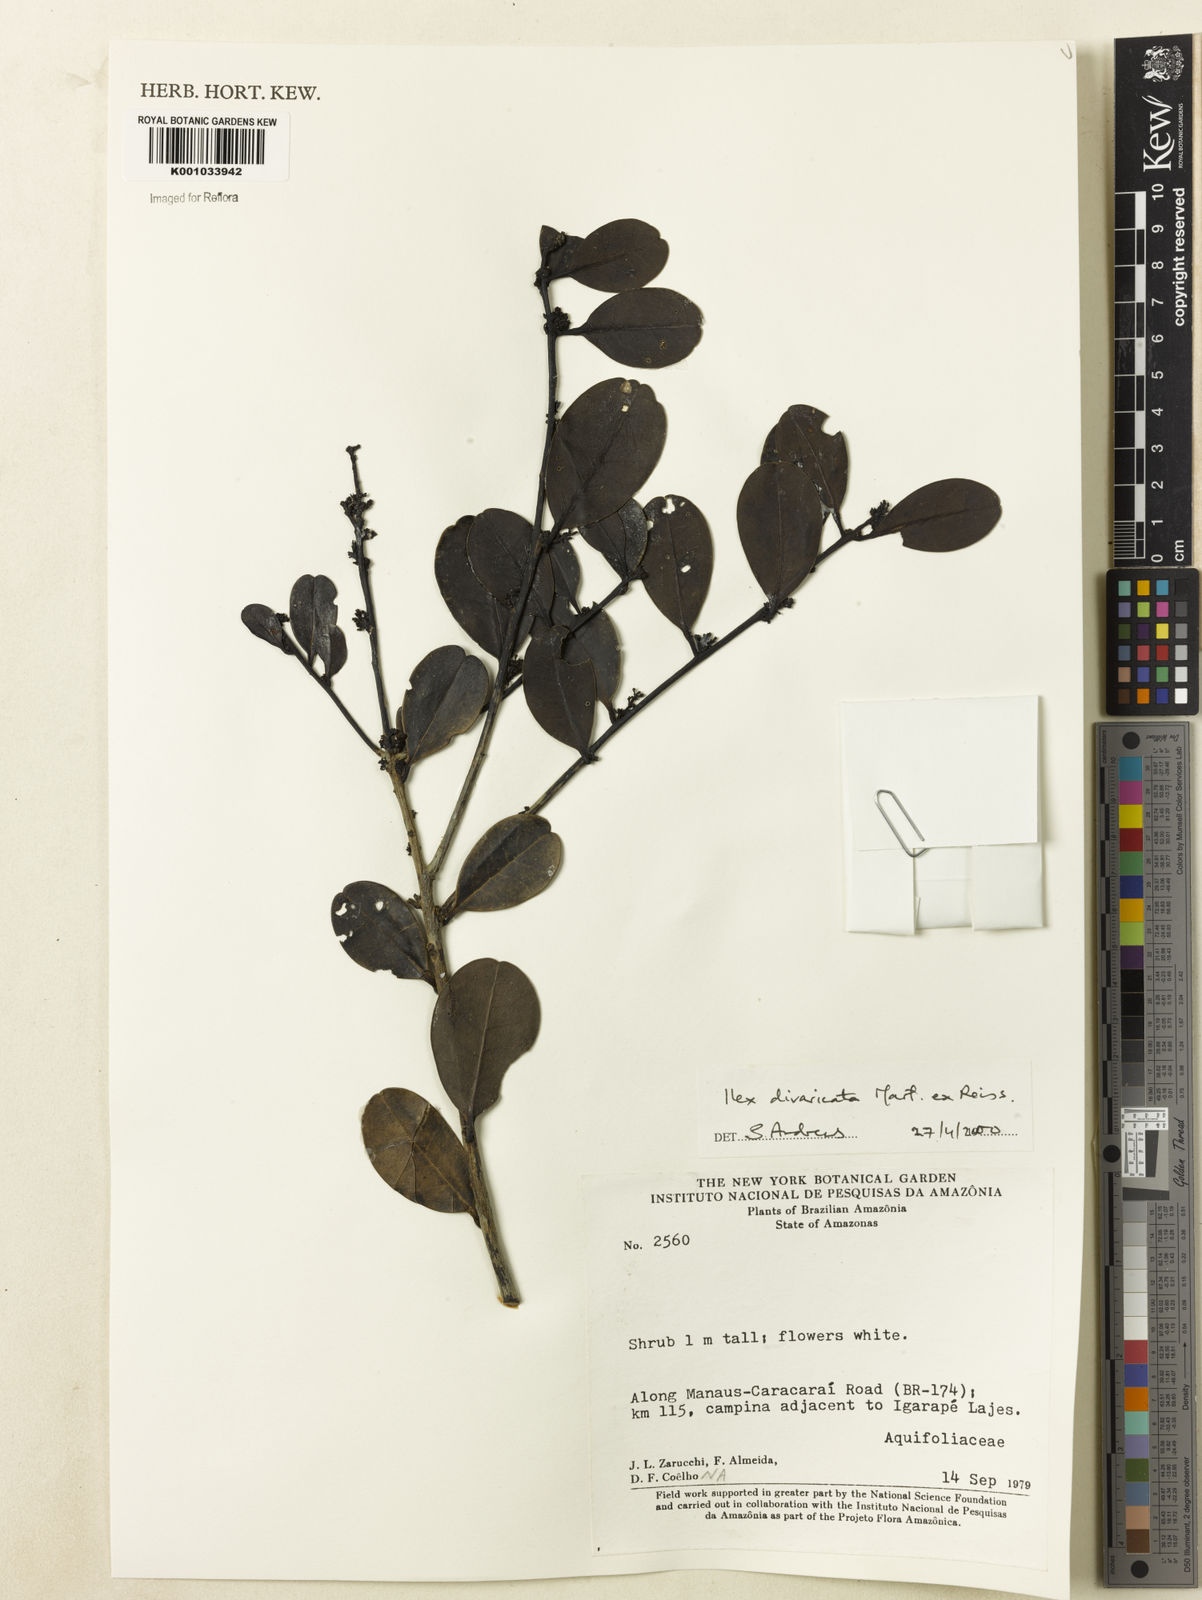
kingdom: Plantae
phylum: Tracheophyta
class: Magnoliopsida
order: Aquifoliales
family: Aquifoliaceae
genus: Ilex
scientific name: Ilex divaricata
